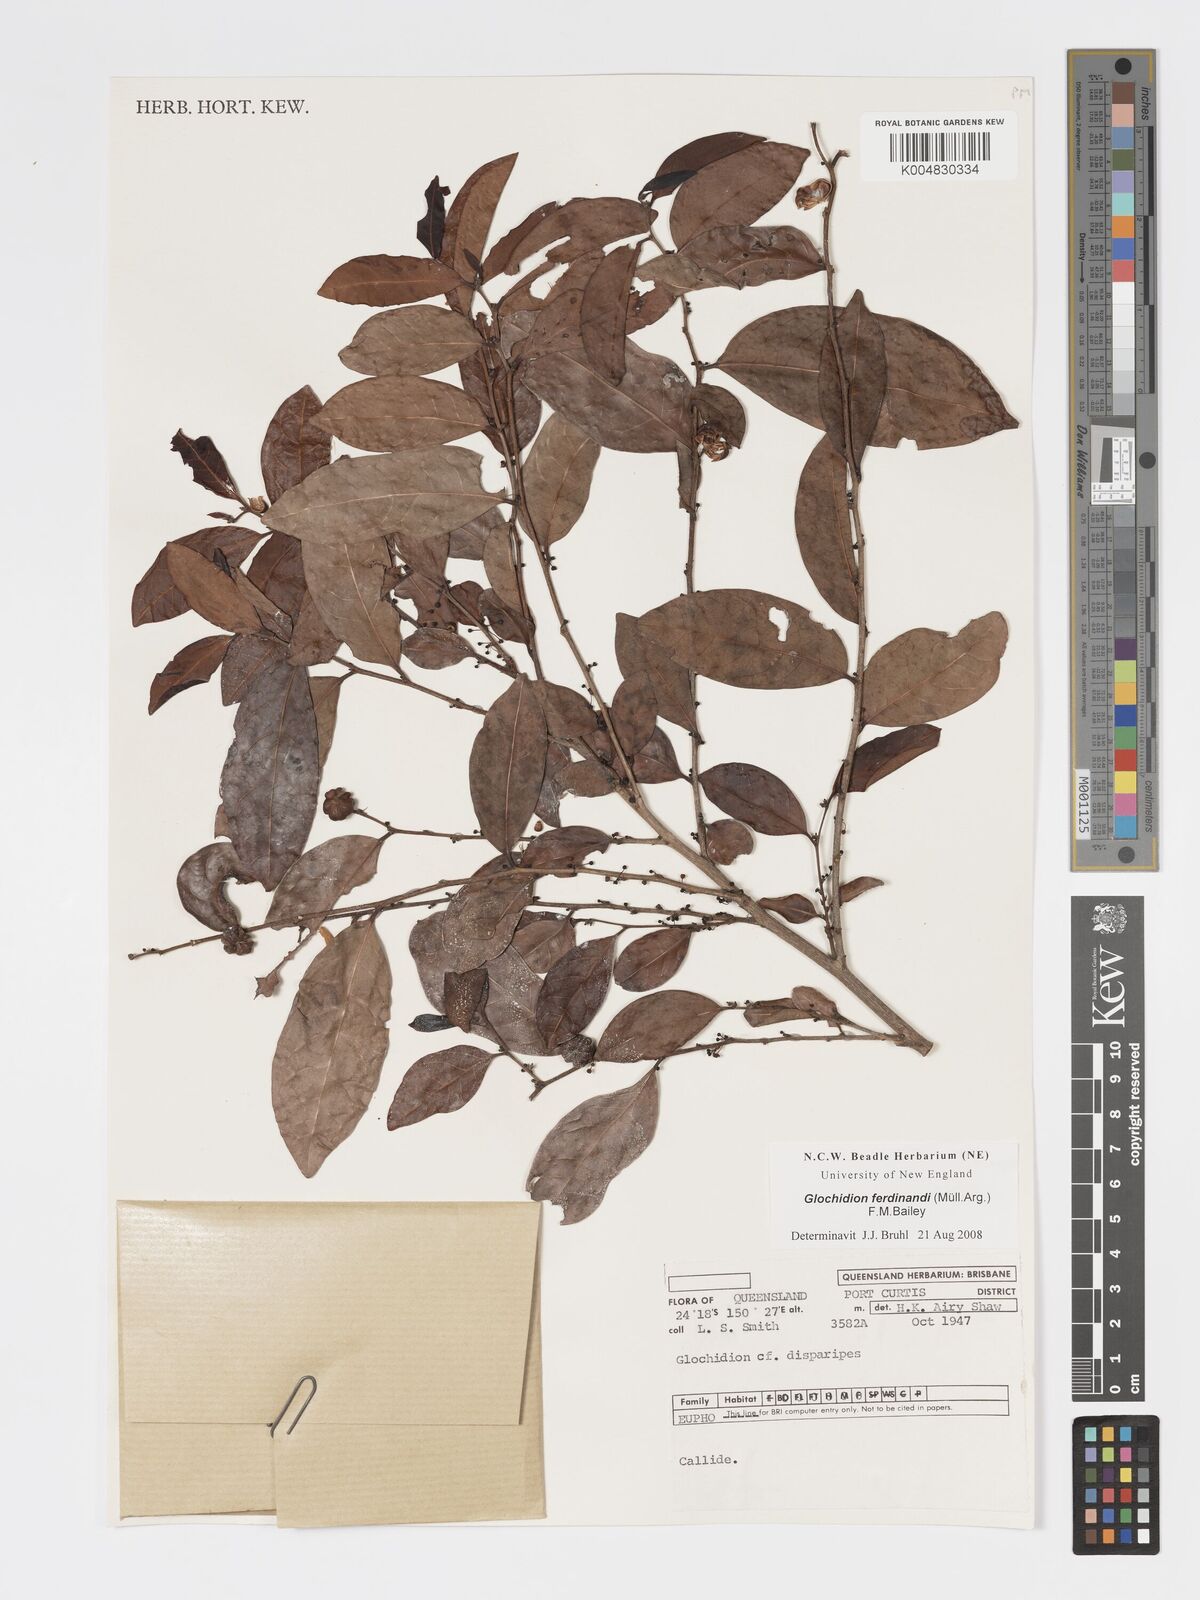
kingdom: Plantae
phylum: Tracheophyta
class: Magnoliopsida
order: Malpighiales
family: Phyllanthaceae
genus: Glochidion
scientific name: Glochidion ferdinandi
